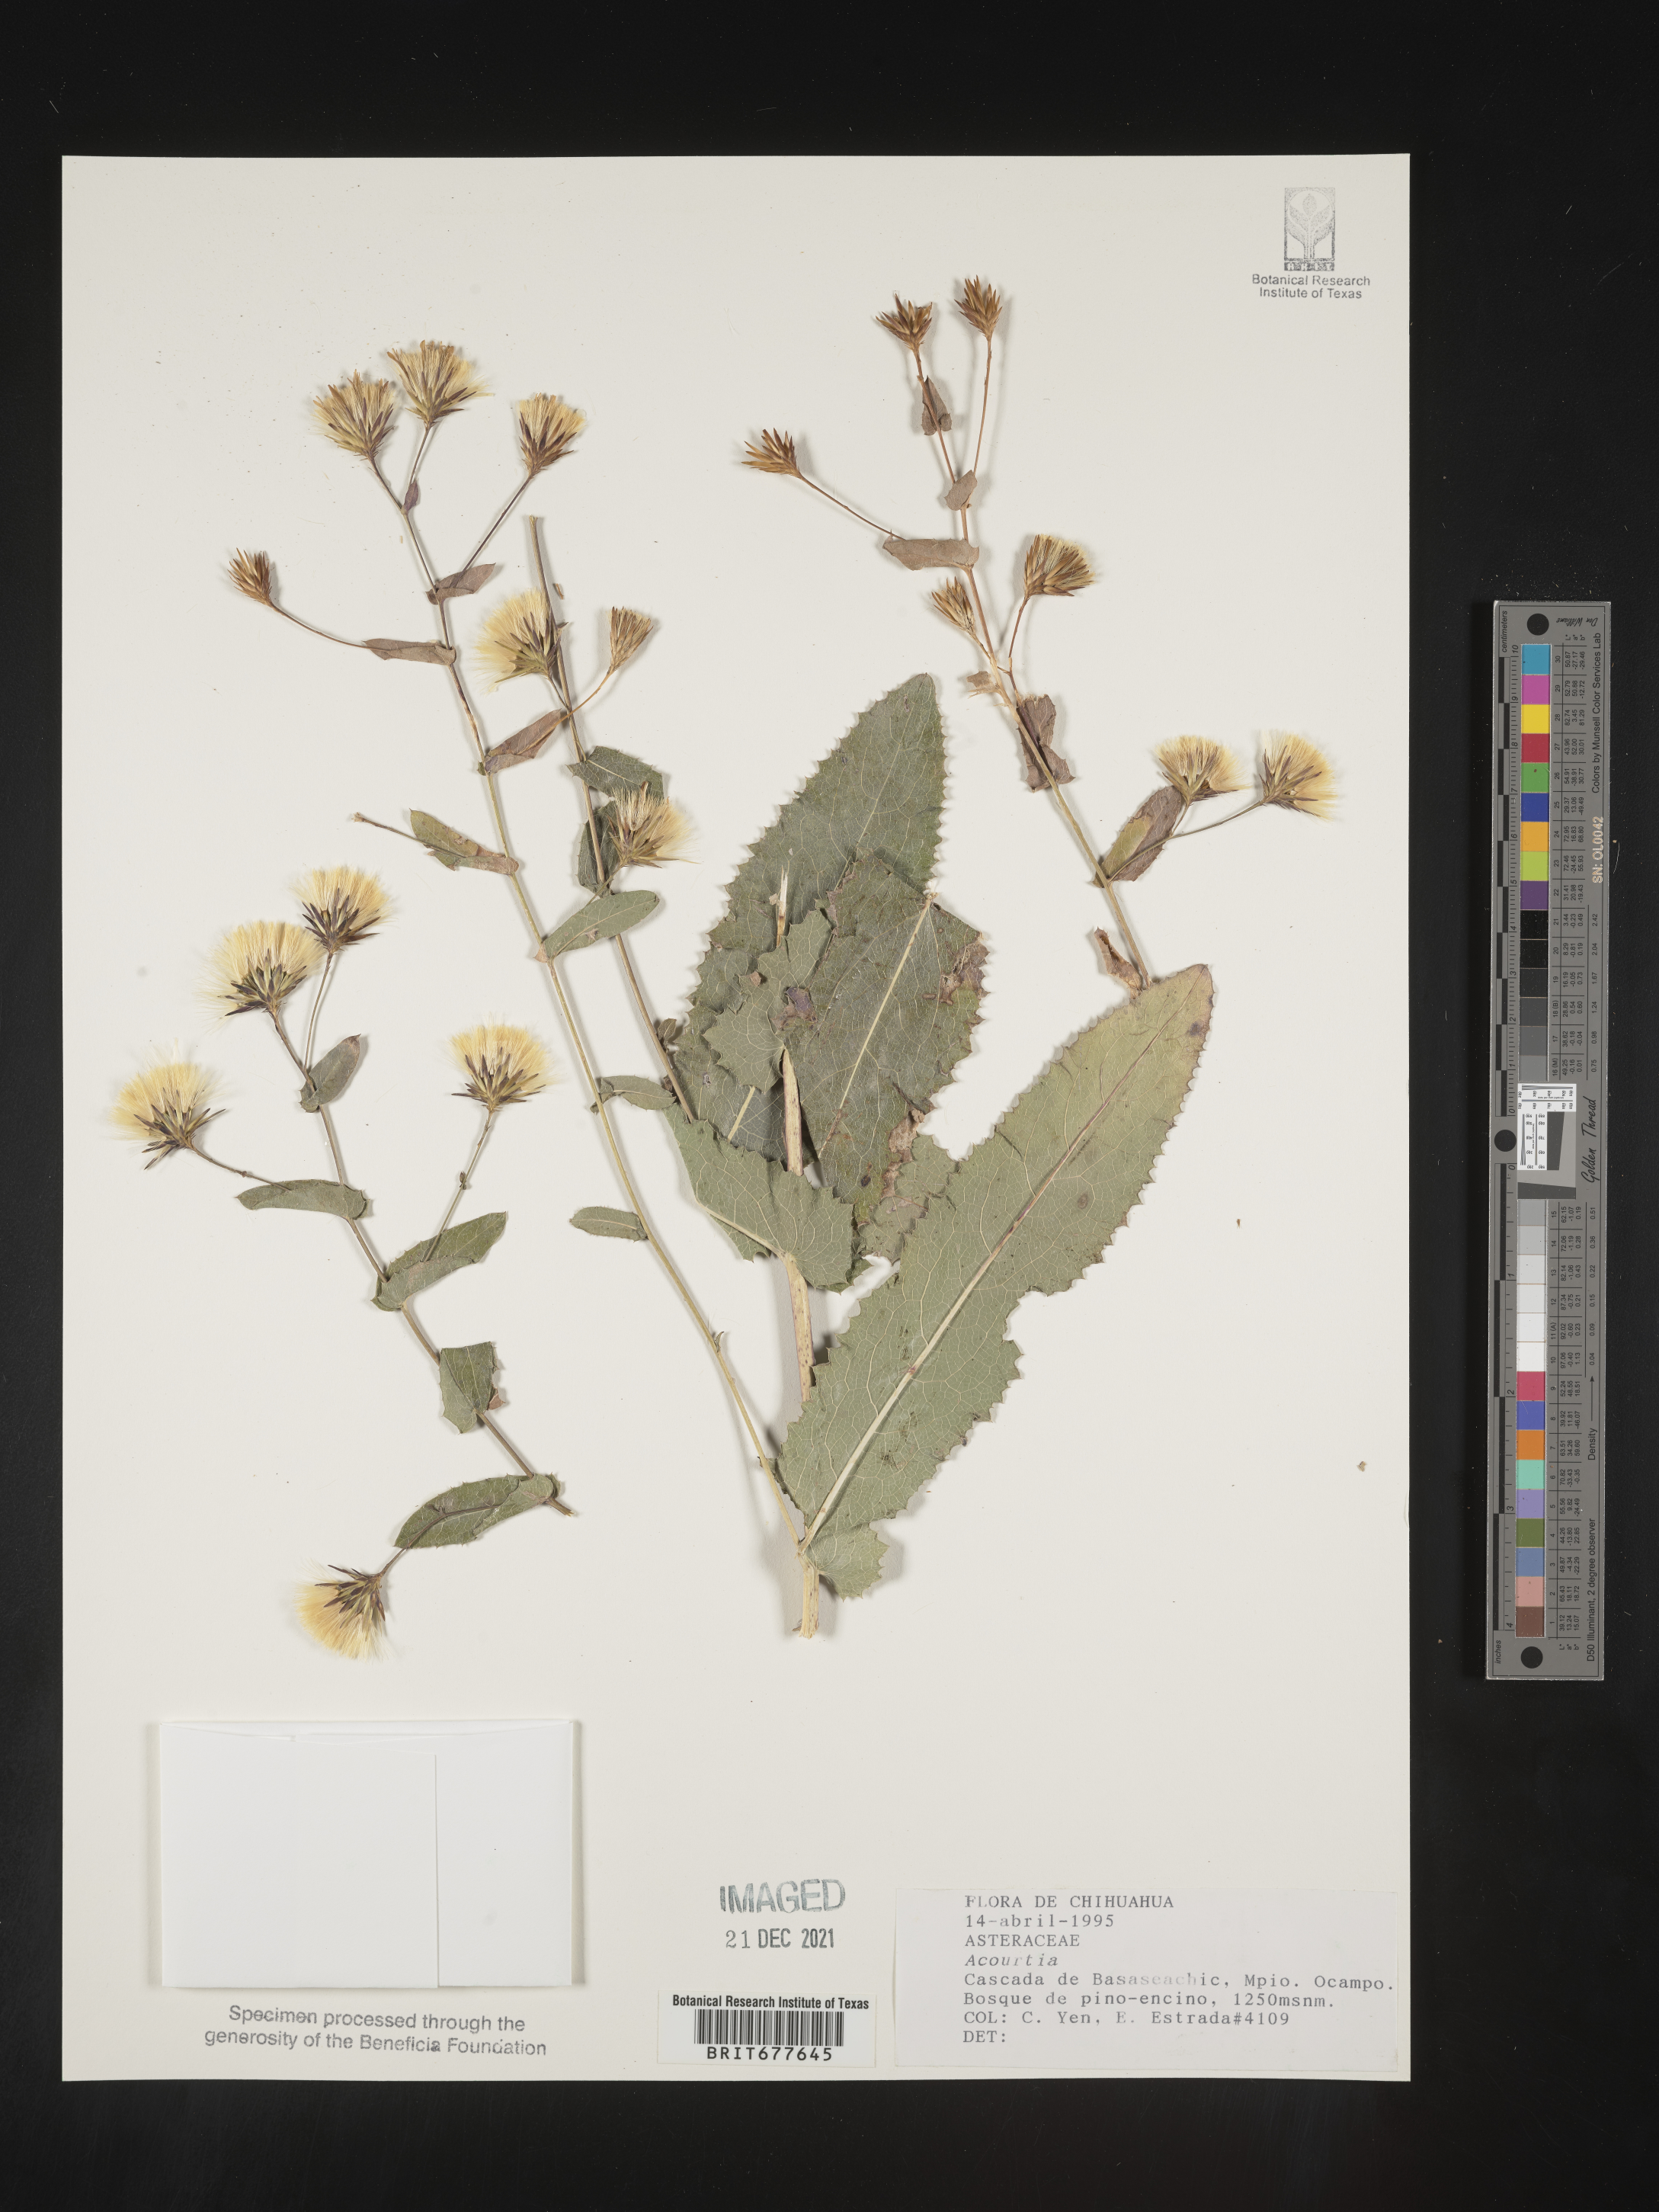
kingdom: Plantae
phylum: Tracheophyta
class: Magnoliopsida
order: Asterales
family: Asteraceae
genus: Acourtia
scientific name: Acourtia
